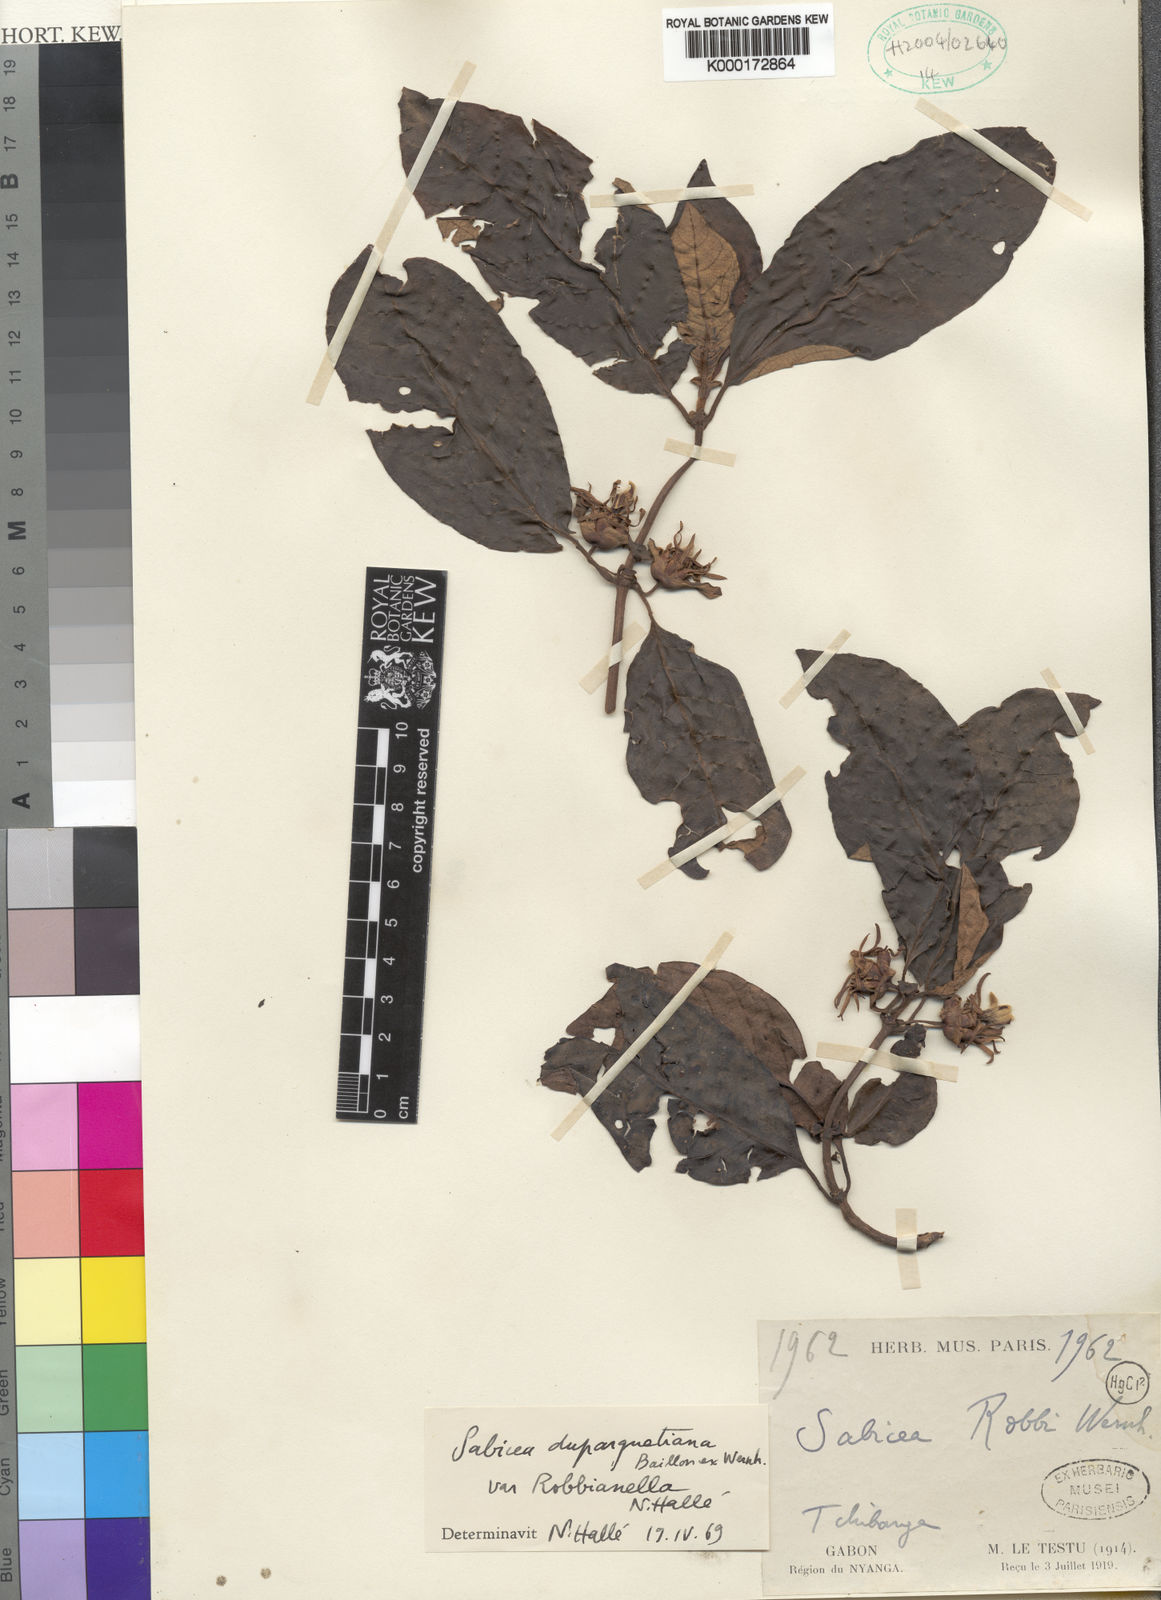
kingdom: Plantae
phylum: Tracheophyta
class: Magnoliopsida
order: Gentianales
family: Rubiaceae
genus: Sabicea
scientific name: Sabicea duparquetiana
